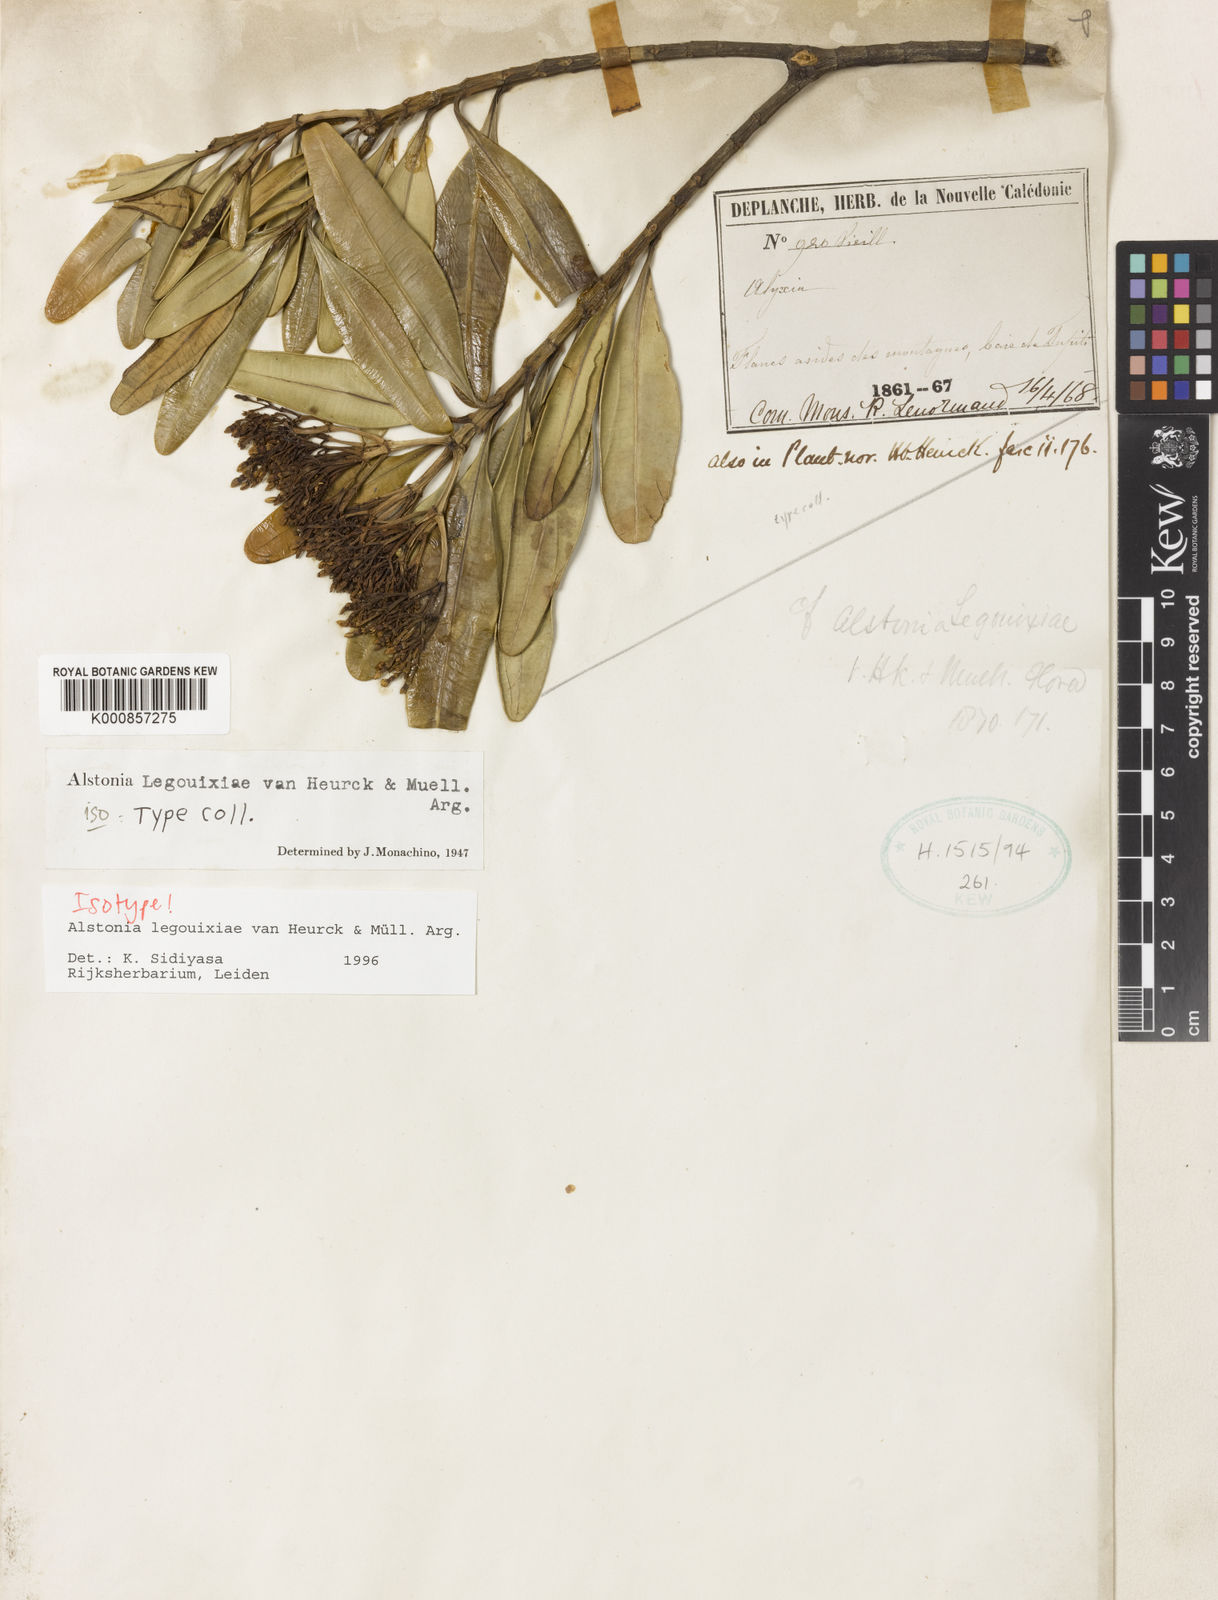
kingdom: Plantae
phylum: Tracheophyta
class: Magnoliopsida
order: Gentianales
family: Apocynaceae
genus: Alstonia
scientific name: Alstonia
